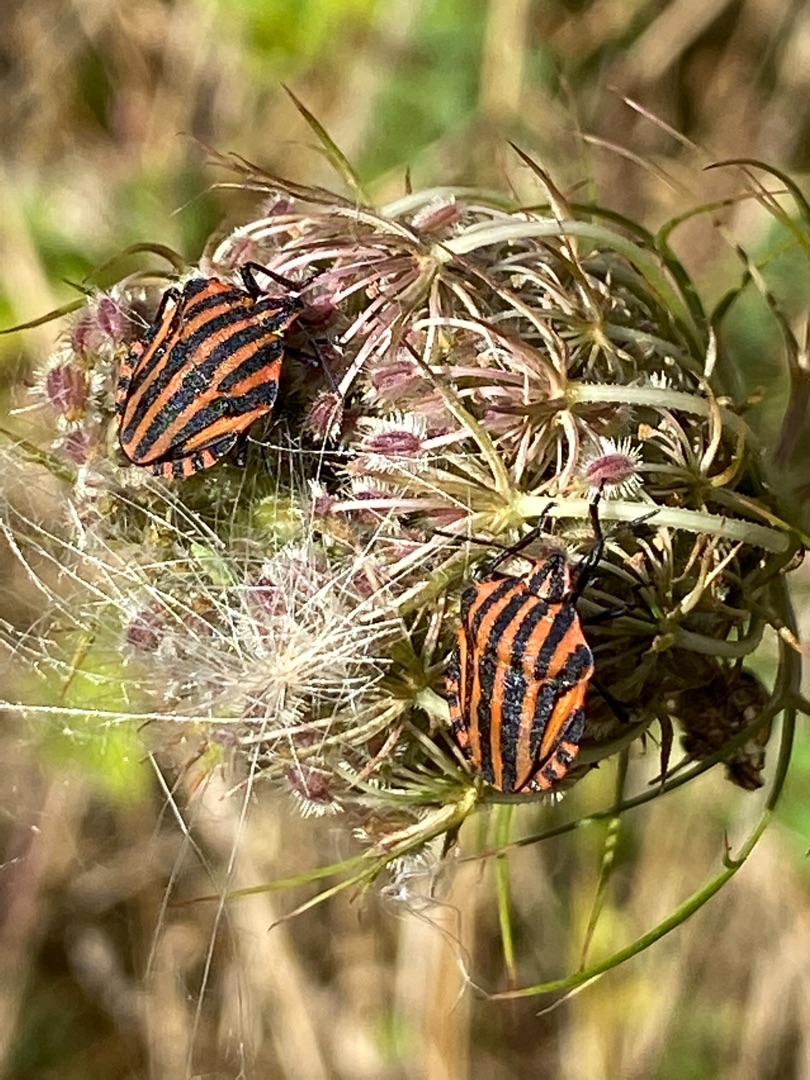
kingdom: Animalia
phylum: Arthropoda
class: Insecta
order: Hemiptera
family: Pentatomidae
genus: Graphosoma
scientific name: Graphosoma italicum
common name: Stribetæge
